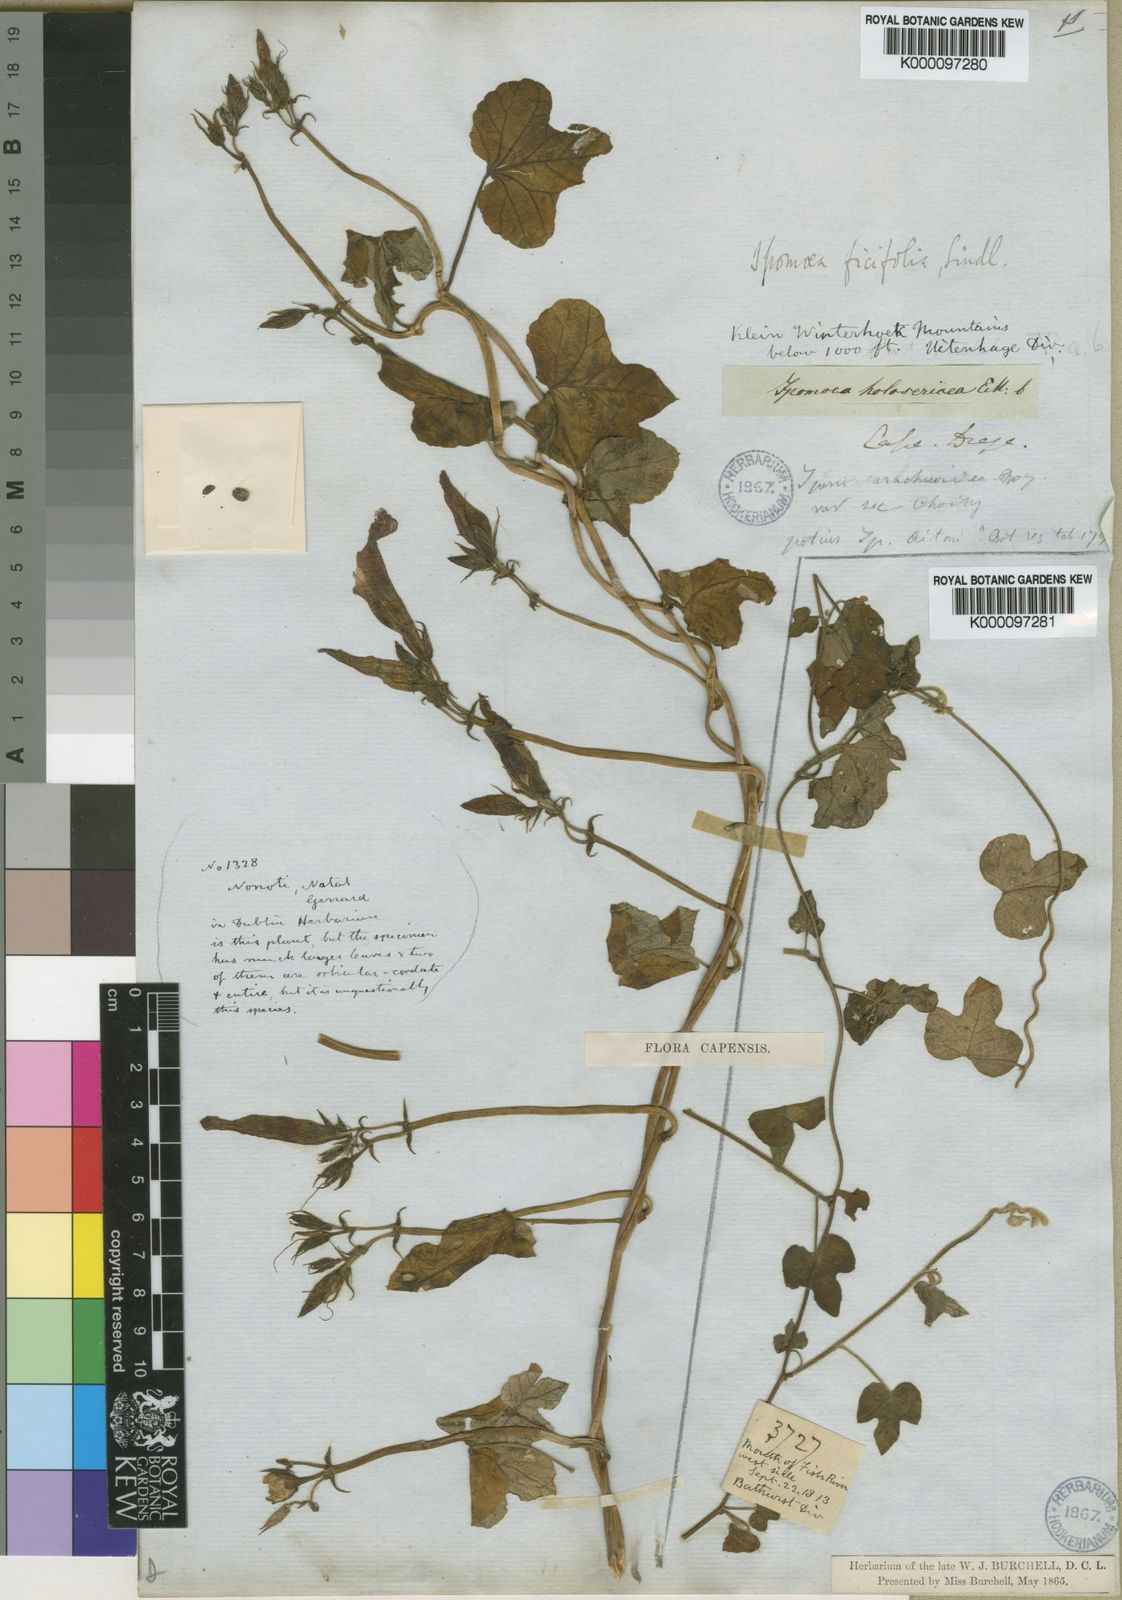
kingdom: Plantae
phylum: Tracheophyta
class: Magnoliopsida
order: Solanales
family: Convolvulaceae
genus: Ipomoea
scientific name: Ipomoea ficifolia
